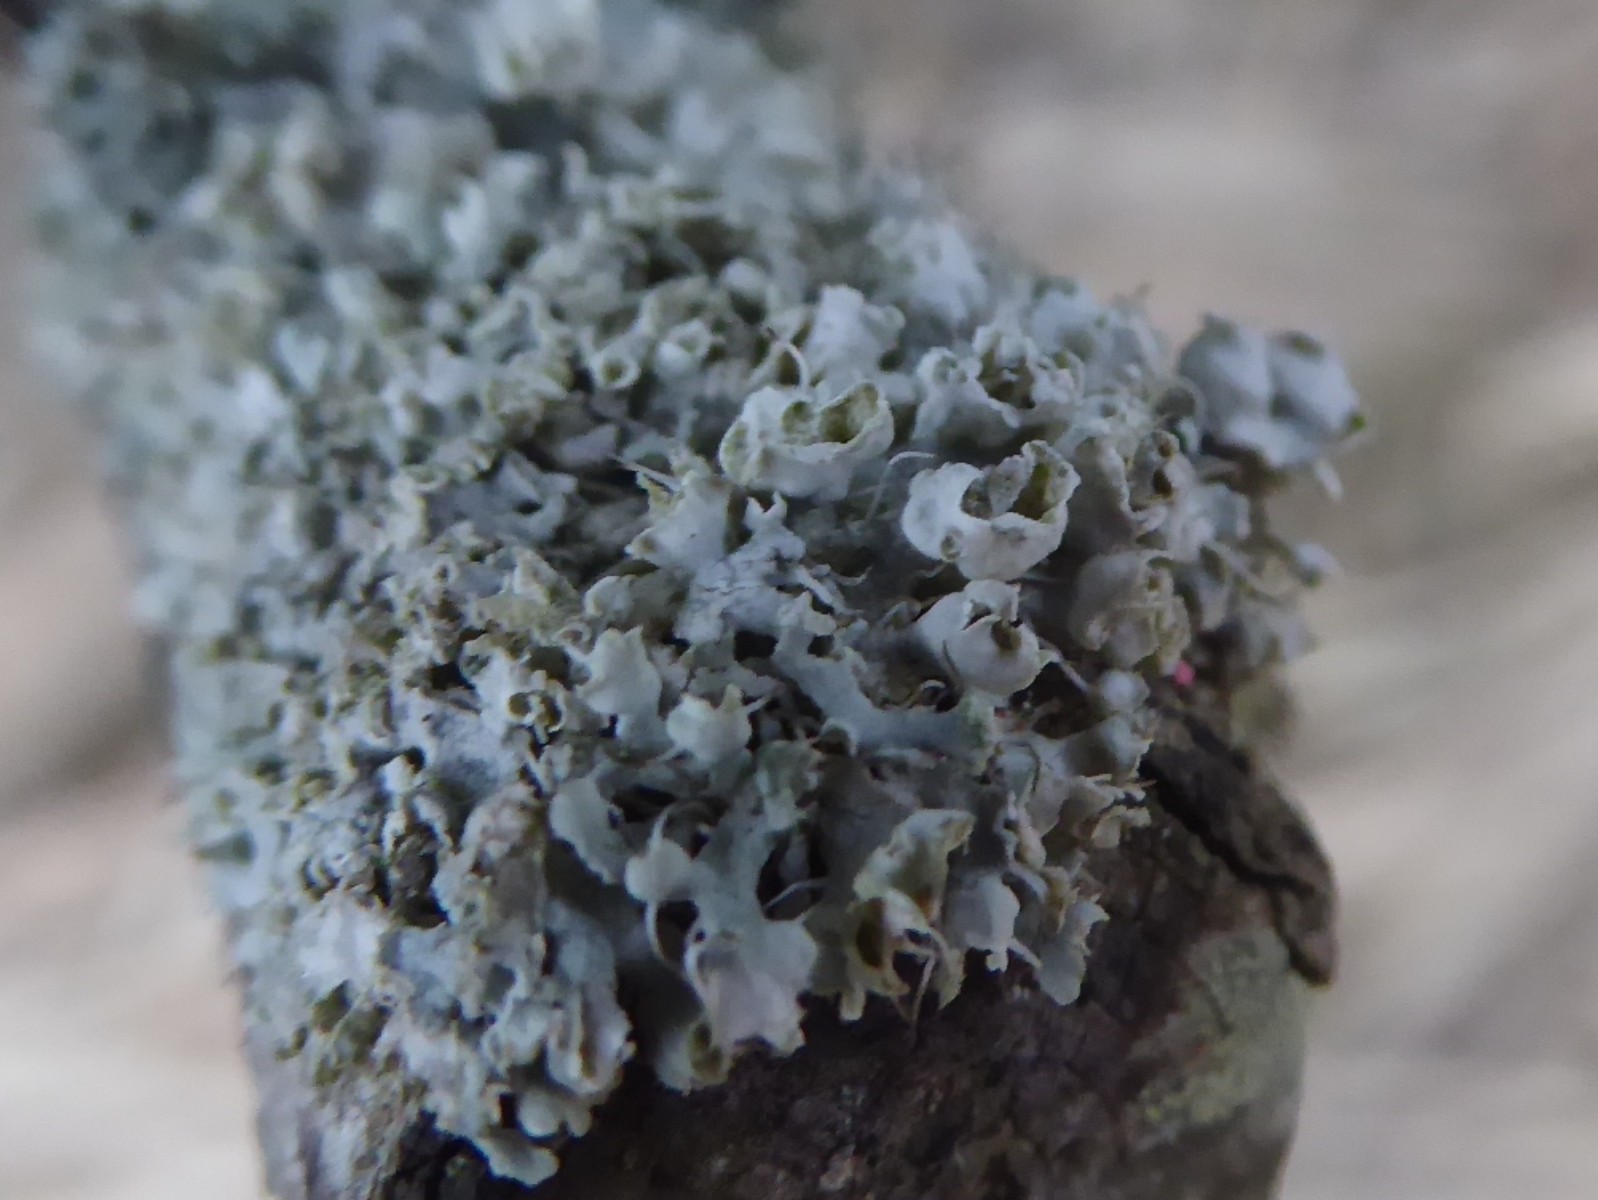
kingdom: Fungi
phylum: Ascomycota
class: Lecanoromycetes
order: Caliciales
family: Physciaceae
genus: Physcia
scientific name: Physcia adscendens
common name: hætte-rosetlav
